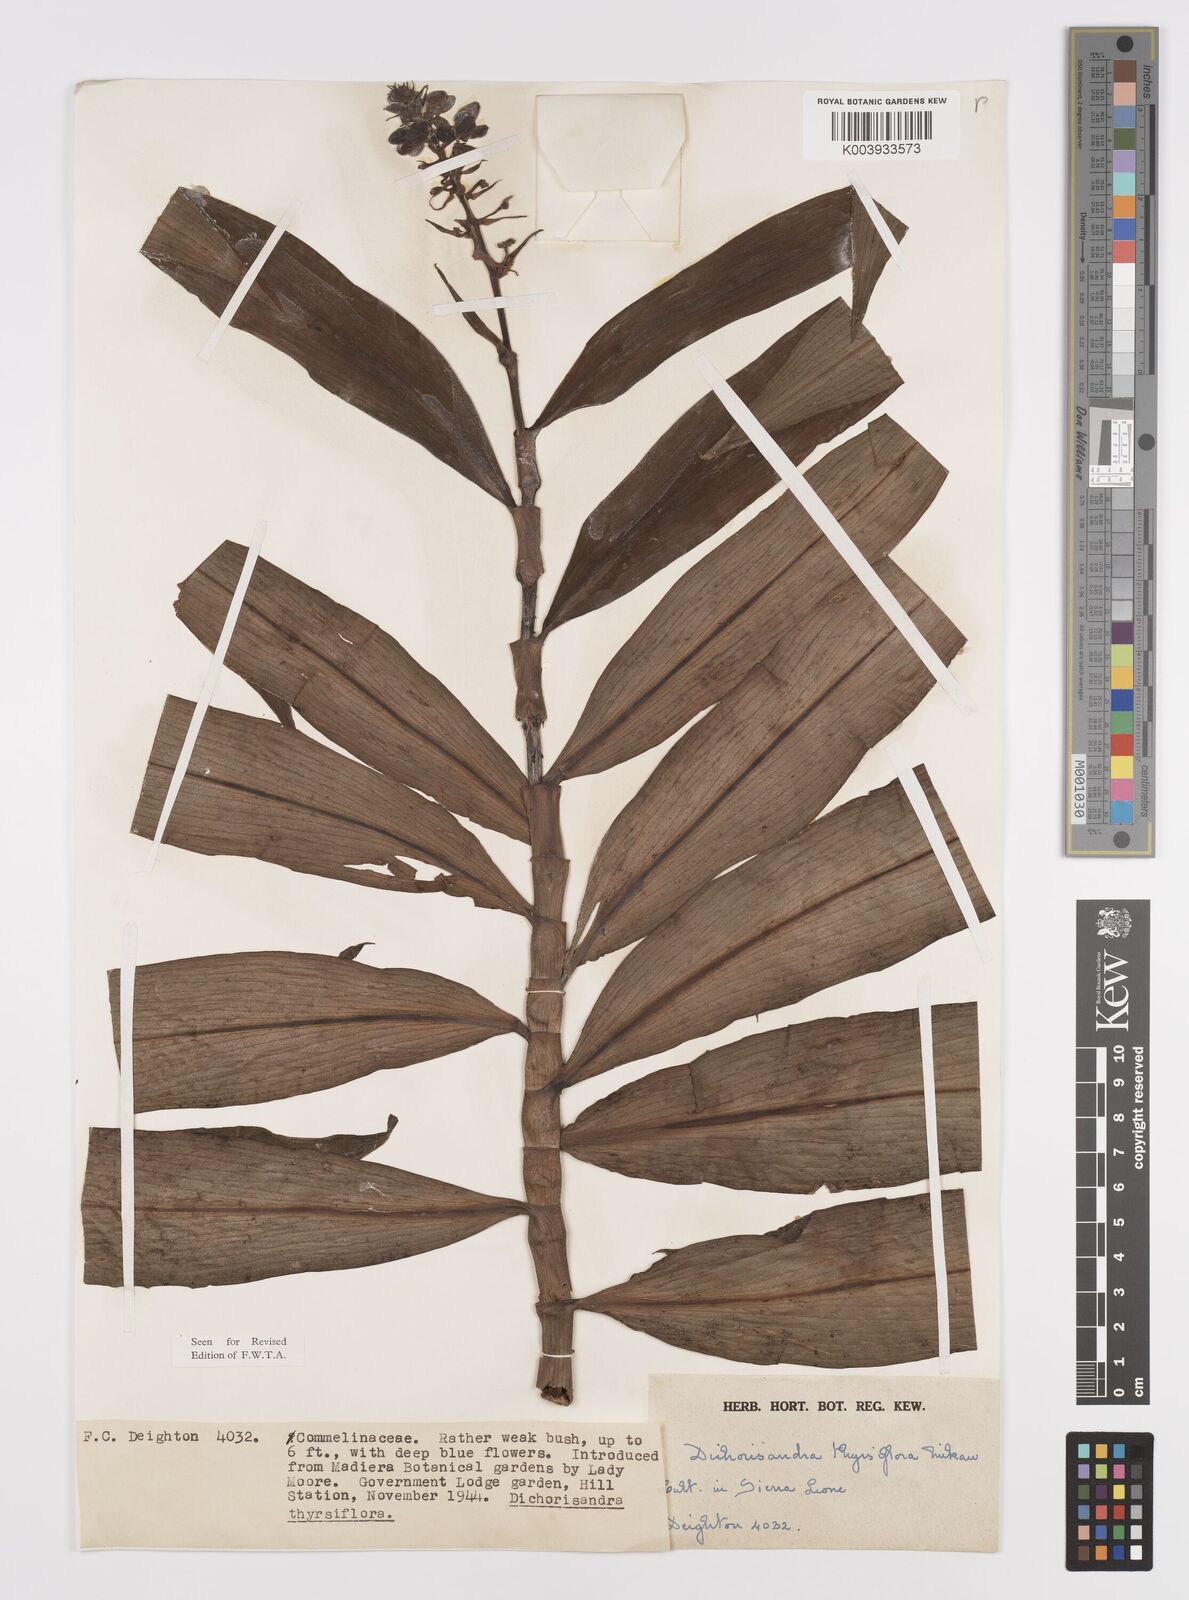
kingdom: Plantae
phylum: Tracheophyta
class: Liliopsida
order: Commelinales
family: Commelinaceae
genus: Dichorisandra
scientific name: Dichorisandra thyrsiflora
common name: Blue-ginger
